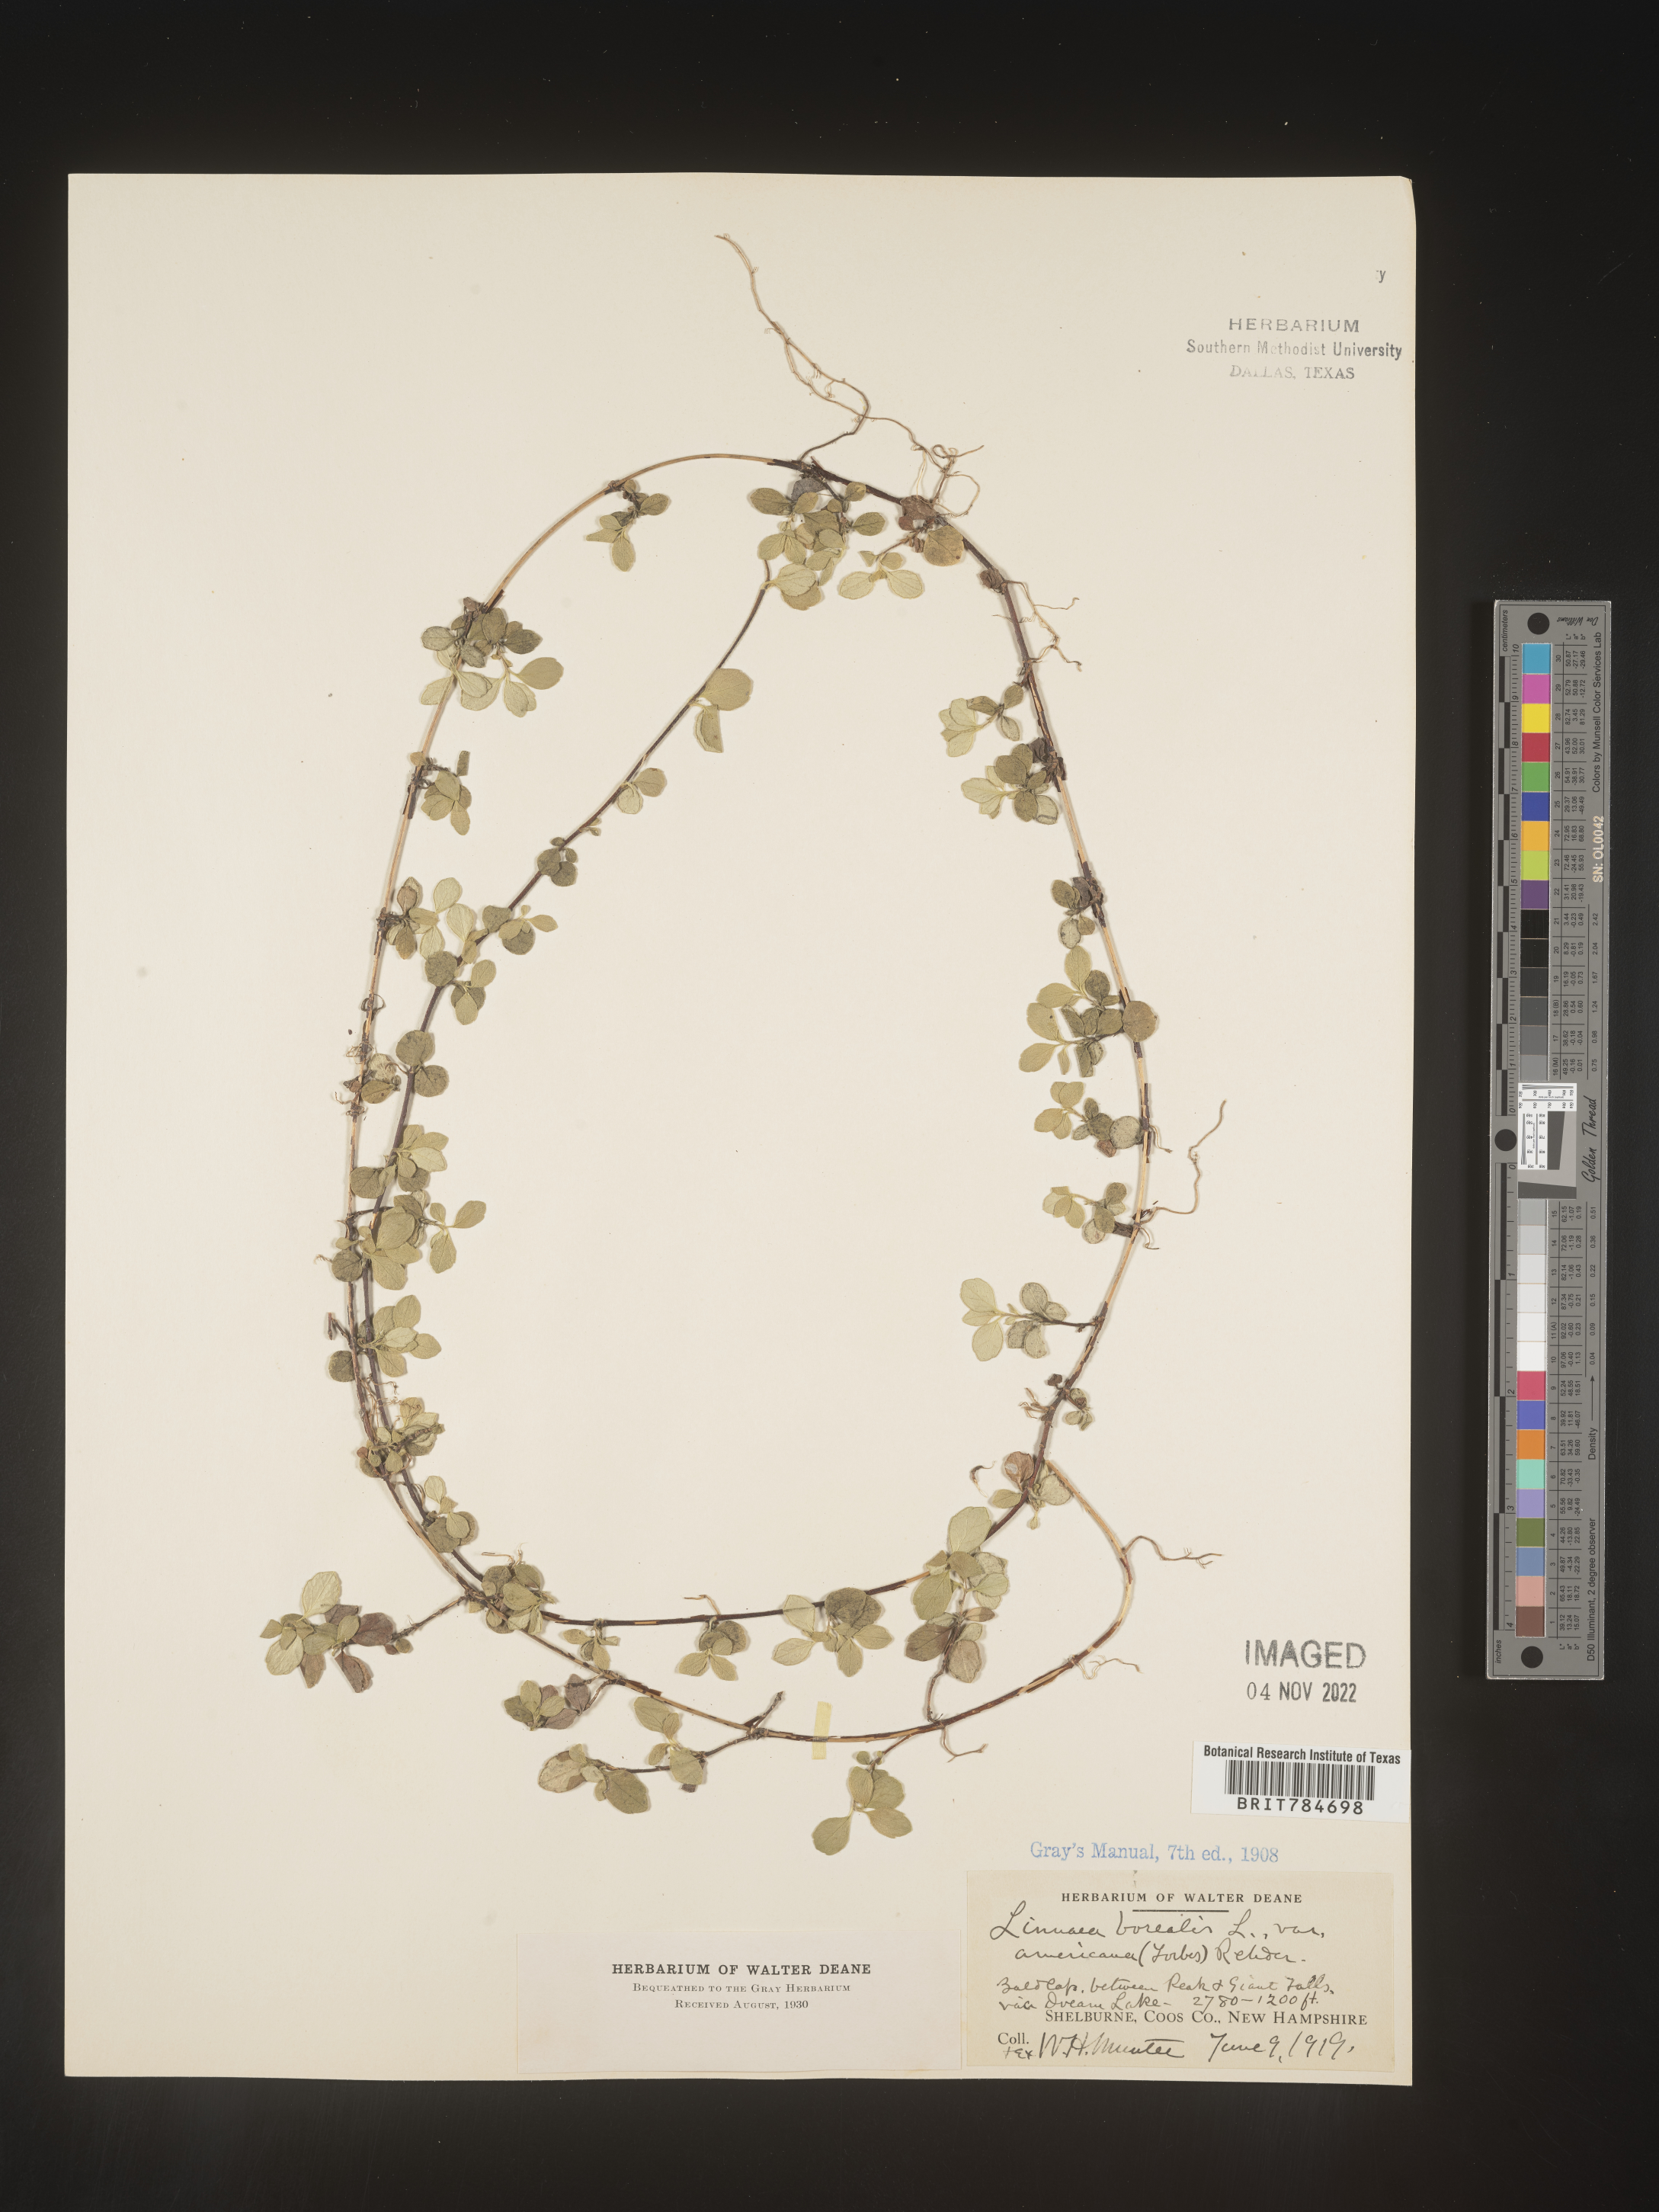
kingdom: Plantae
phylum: Tracheophyta
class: Magnoliopsida
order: Dipsacales
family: Caprifoliaceae
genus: Linnaea
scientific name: Linnaea borealis
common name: Twinflower
